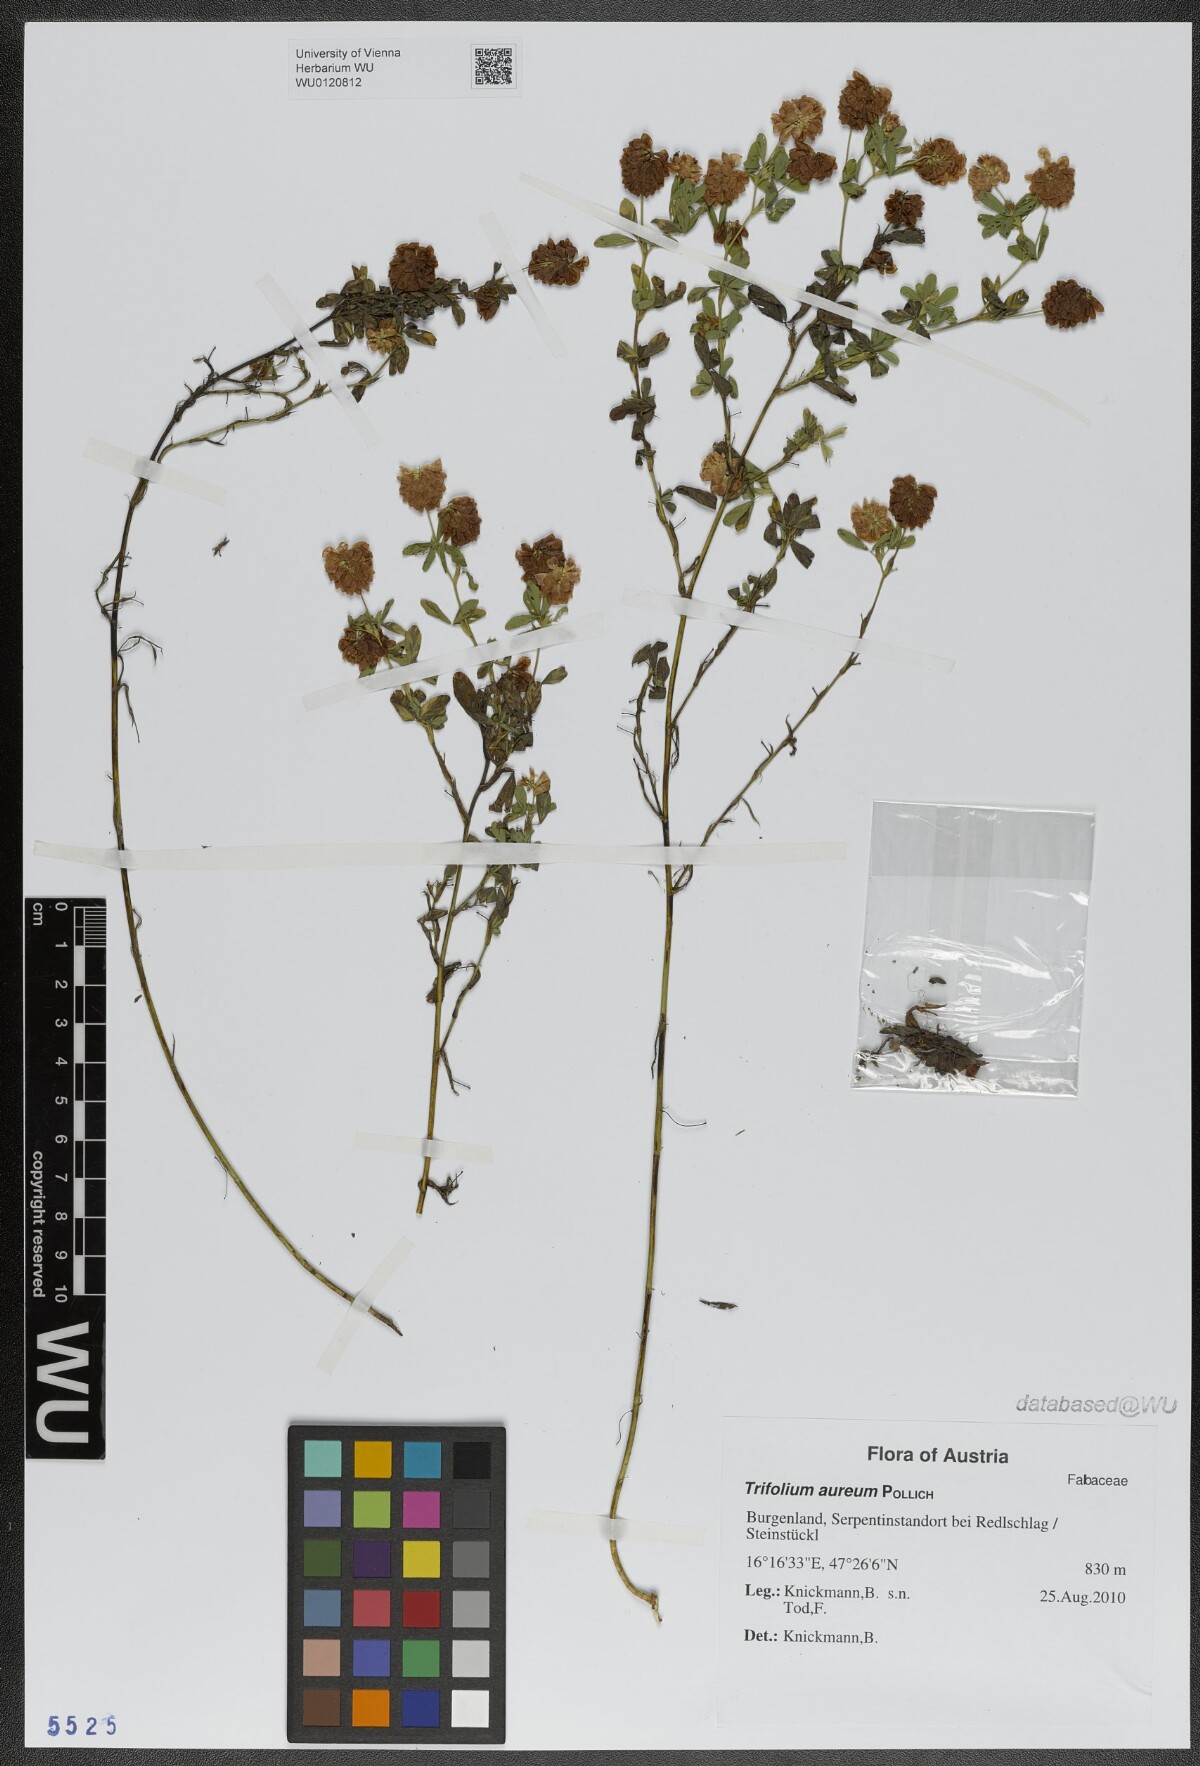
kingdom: Plantae
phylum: Tracheophyta
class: Magnoliopsida
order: Fabales
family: Fabaceae
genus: Trifolium
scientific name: Trifolium aureum
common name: Golden clover
